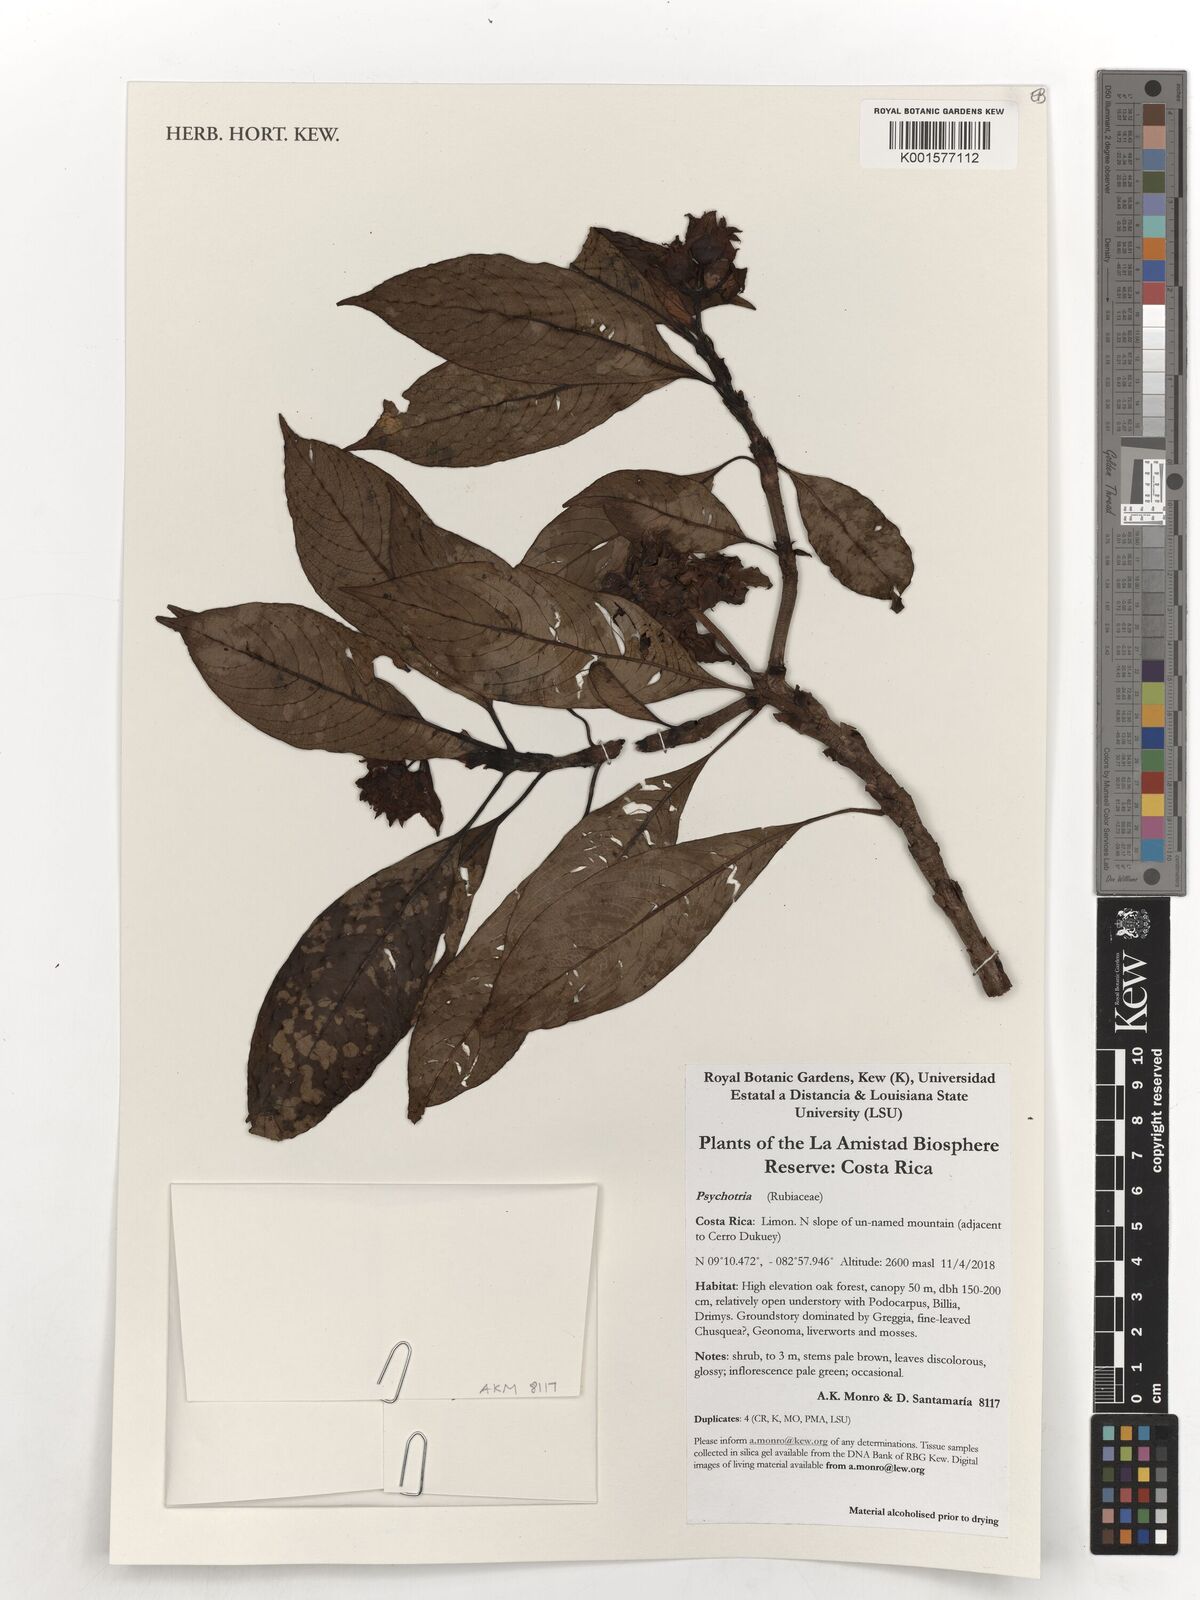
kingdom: Plantae
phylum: Tracheophyta
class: Magnoliopsida
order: Gentianales
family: Rubiaceae
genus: Psychotria
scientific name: Psychotria
